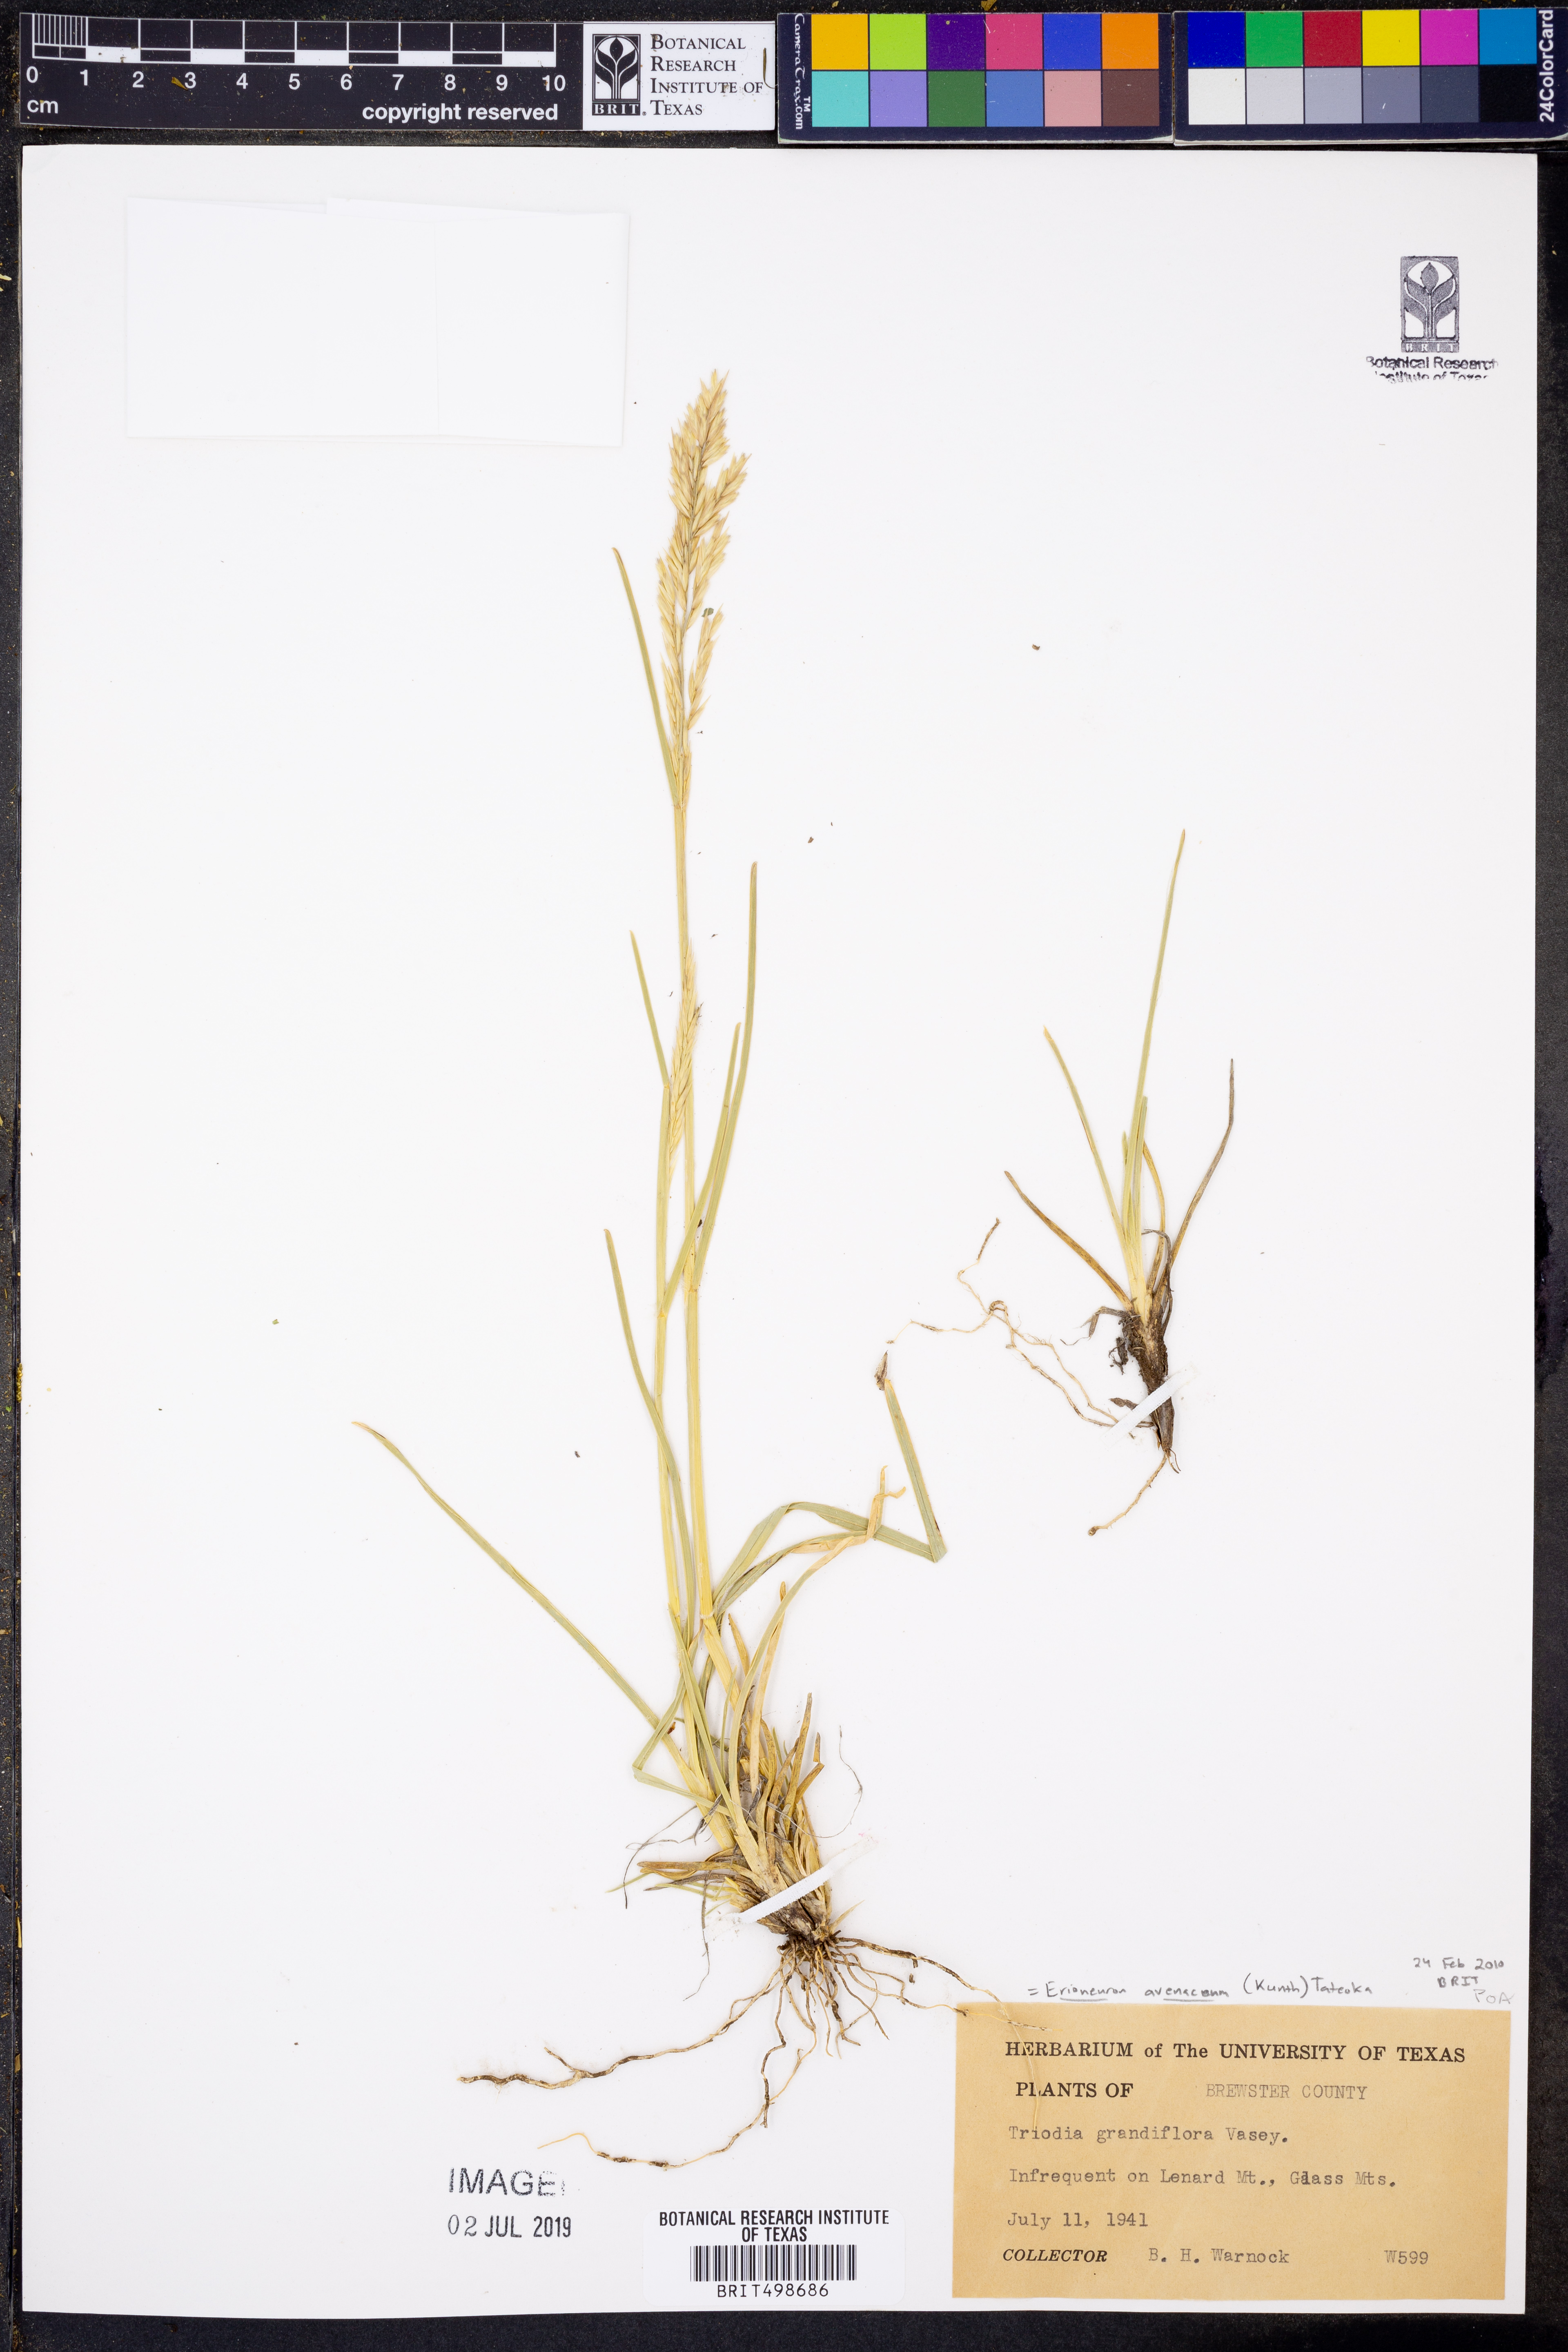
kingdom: Plantae
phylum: Tracheophyta
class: Liliopsida
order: Poales
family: Poaceae
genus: Erioneuron
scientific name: Erioneuron avenaceum
